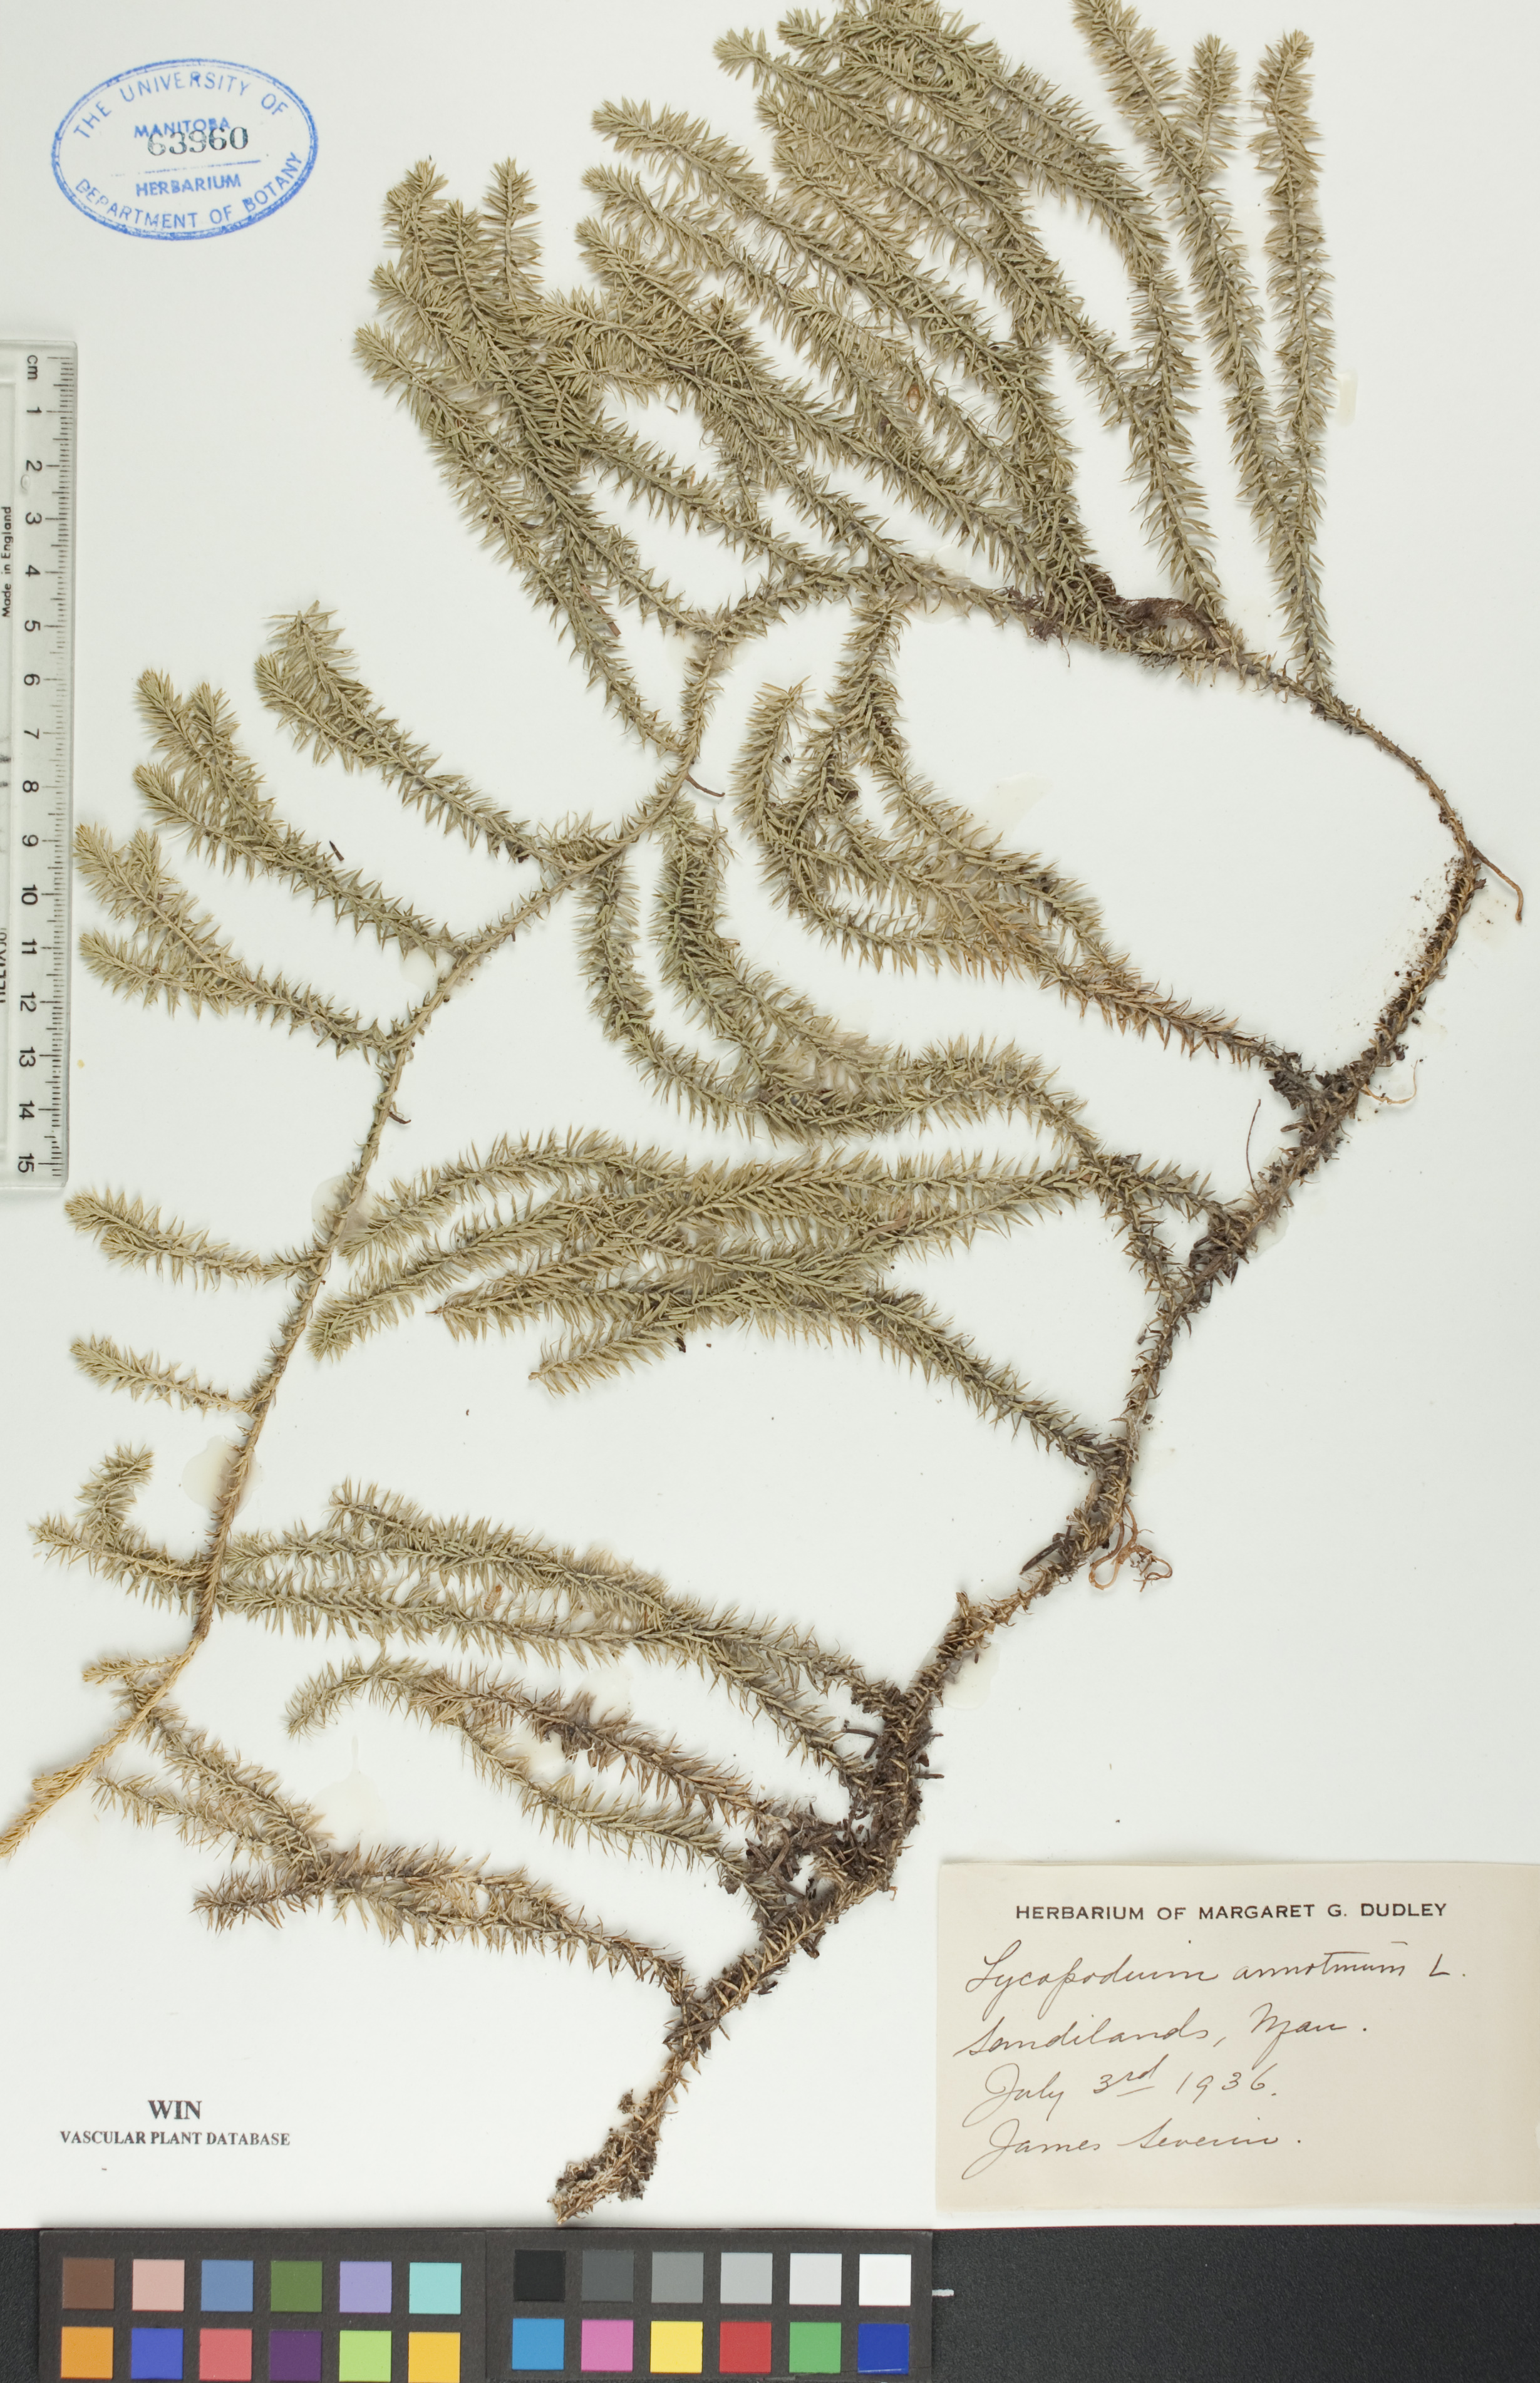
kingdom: Plantae
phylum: Tracheophyta
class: Lycopodiopsida
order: Lycopodiales
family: Lycopodiaceae
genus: Spinulum
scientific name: Spinulum annotinum
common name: Interrupted club-moss
